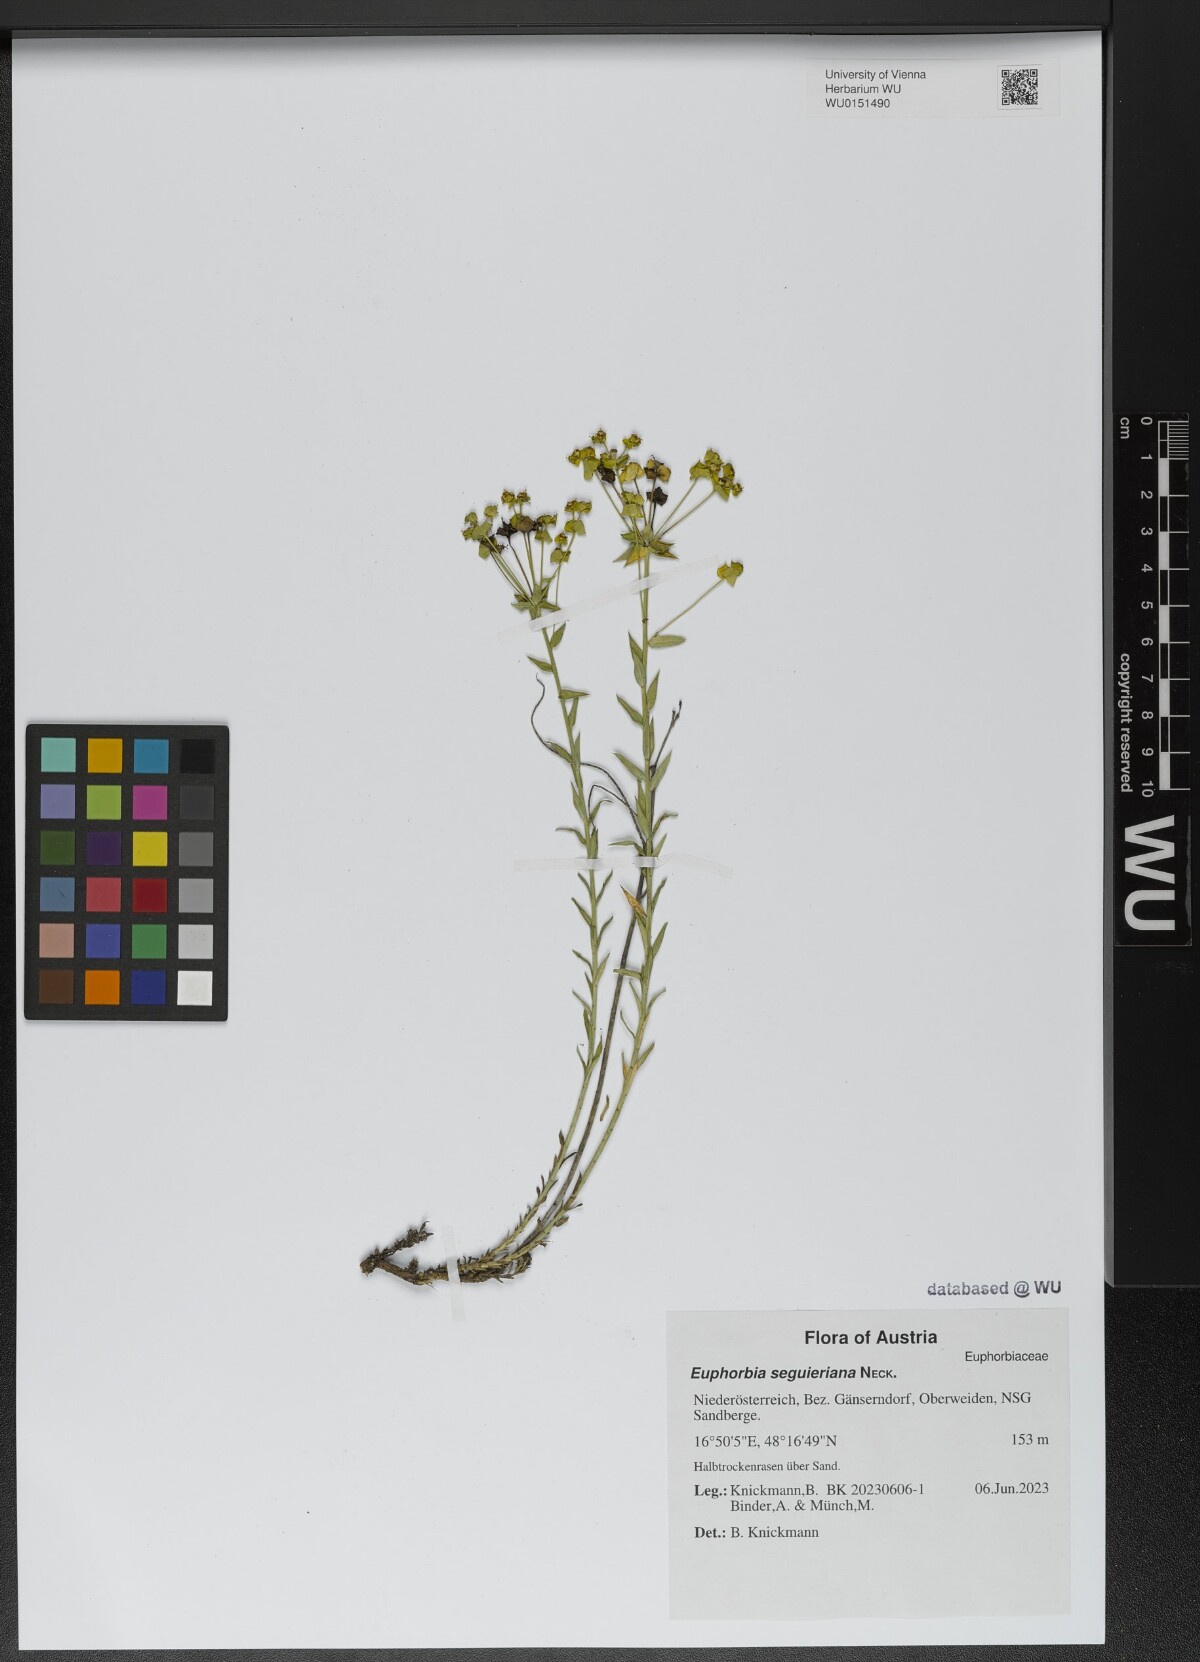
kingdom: Plantae
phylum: Tracheophyta
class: Magnoliopsida
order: Malpighiales
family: Euphorbiaceae
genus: Euphorbia
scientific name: Euphorbia seguieriana
